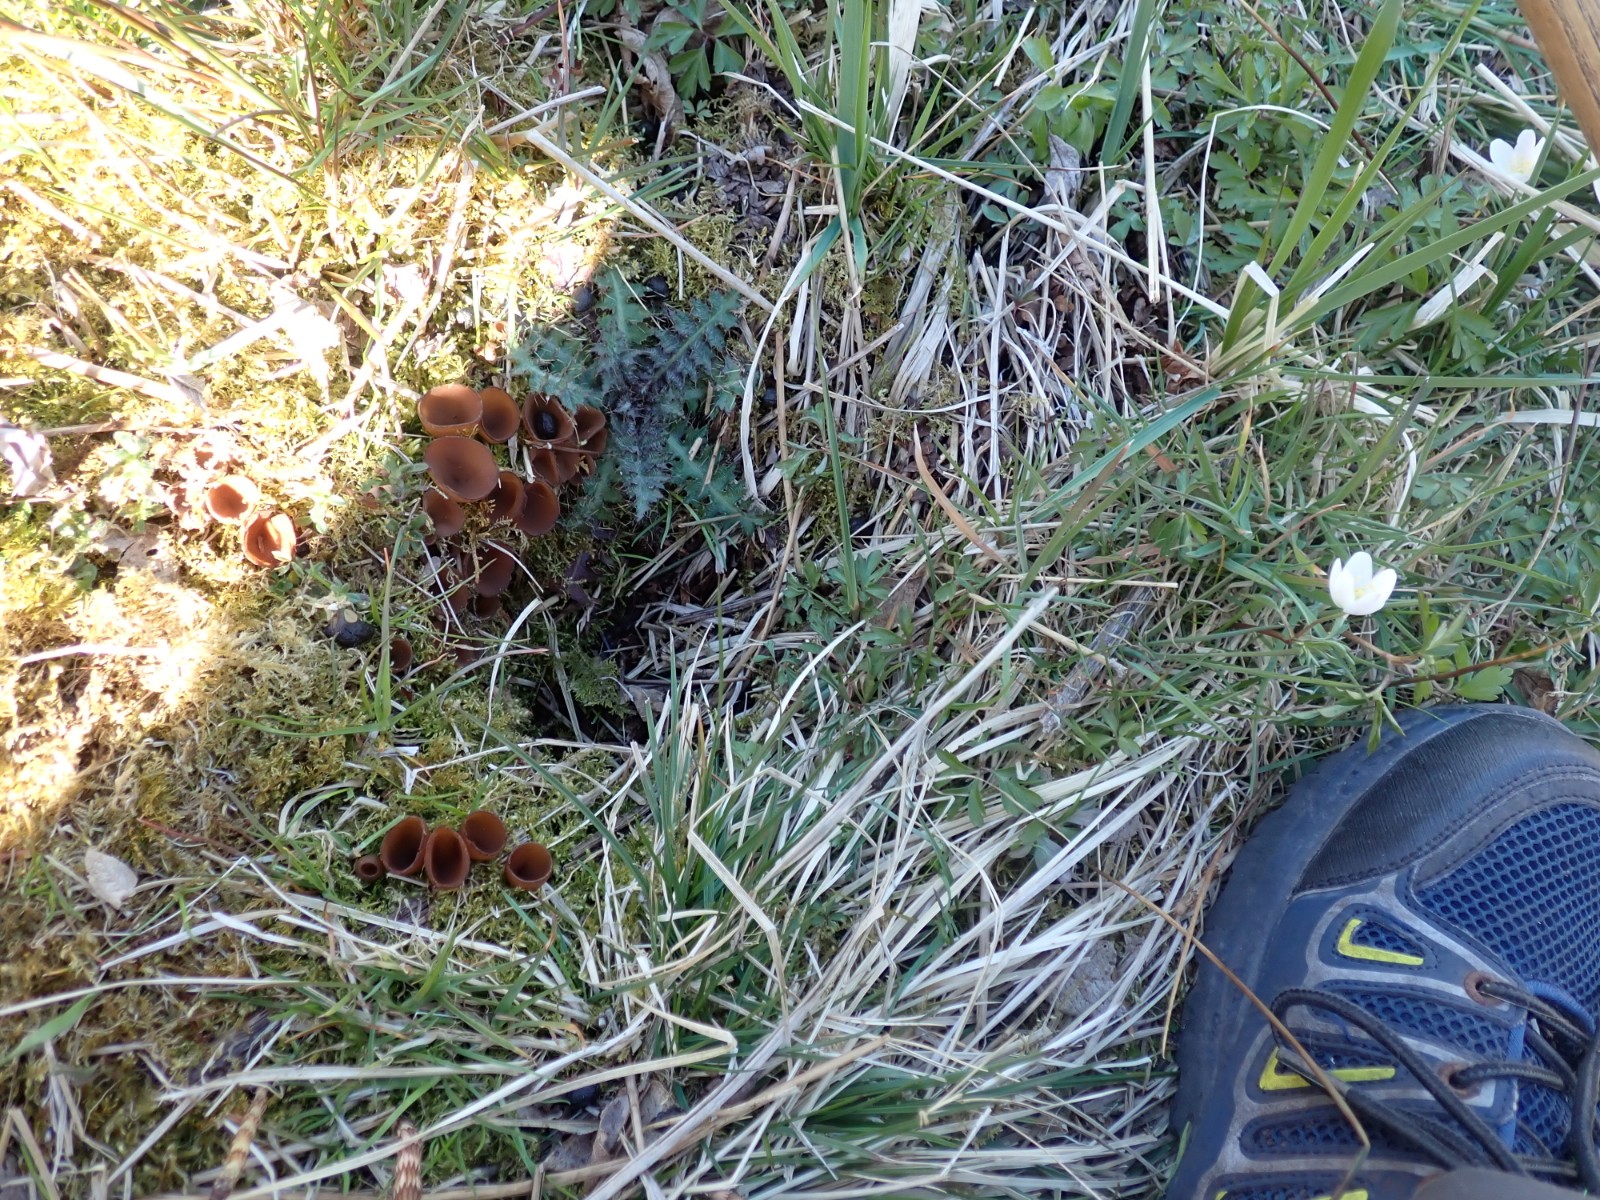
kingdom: Fungi
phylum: Ascomycota
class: Leotiomycetes
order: Helotiales
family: Sclerotiniaceae
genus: Dumontinia
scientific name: Dumontinia tuberosa
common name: anemone-knoldskive
